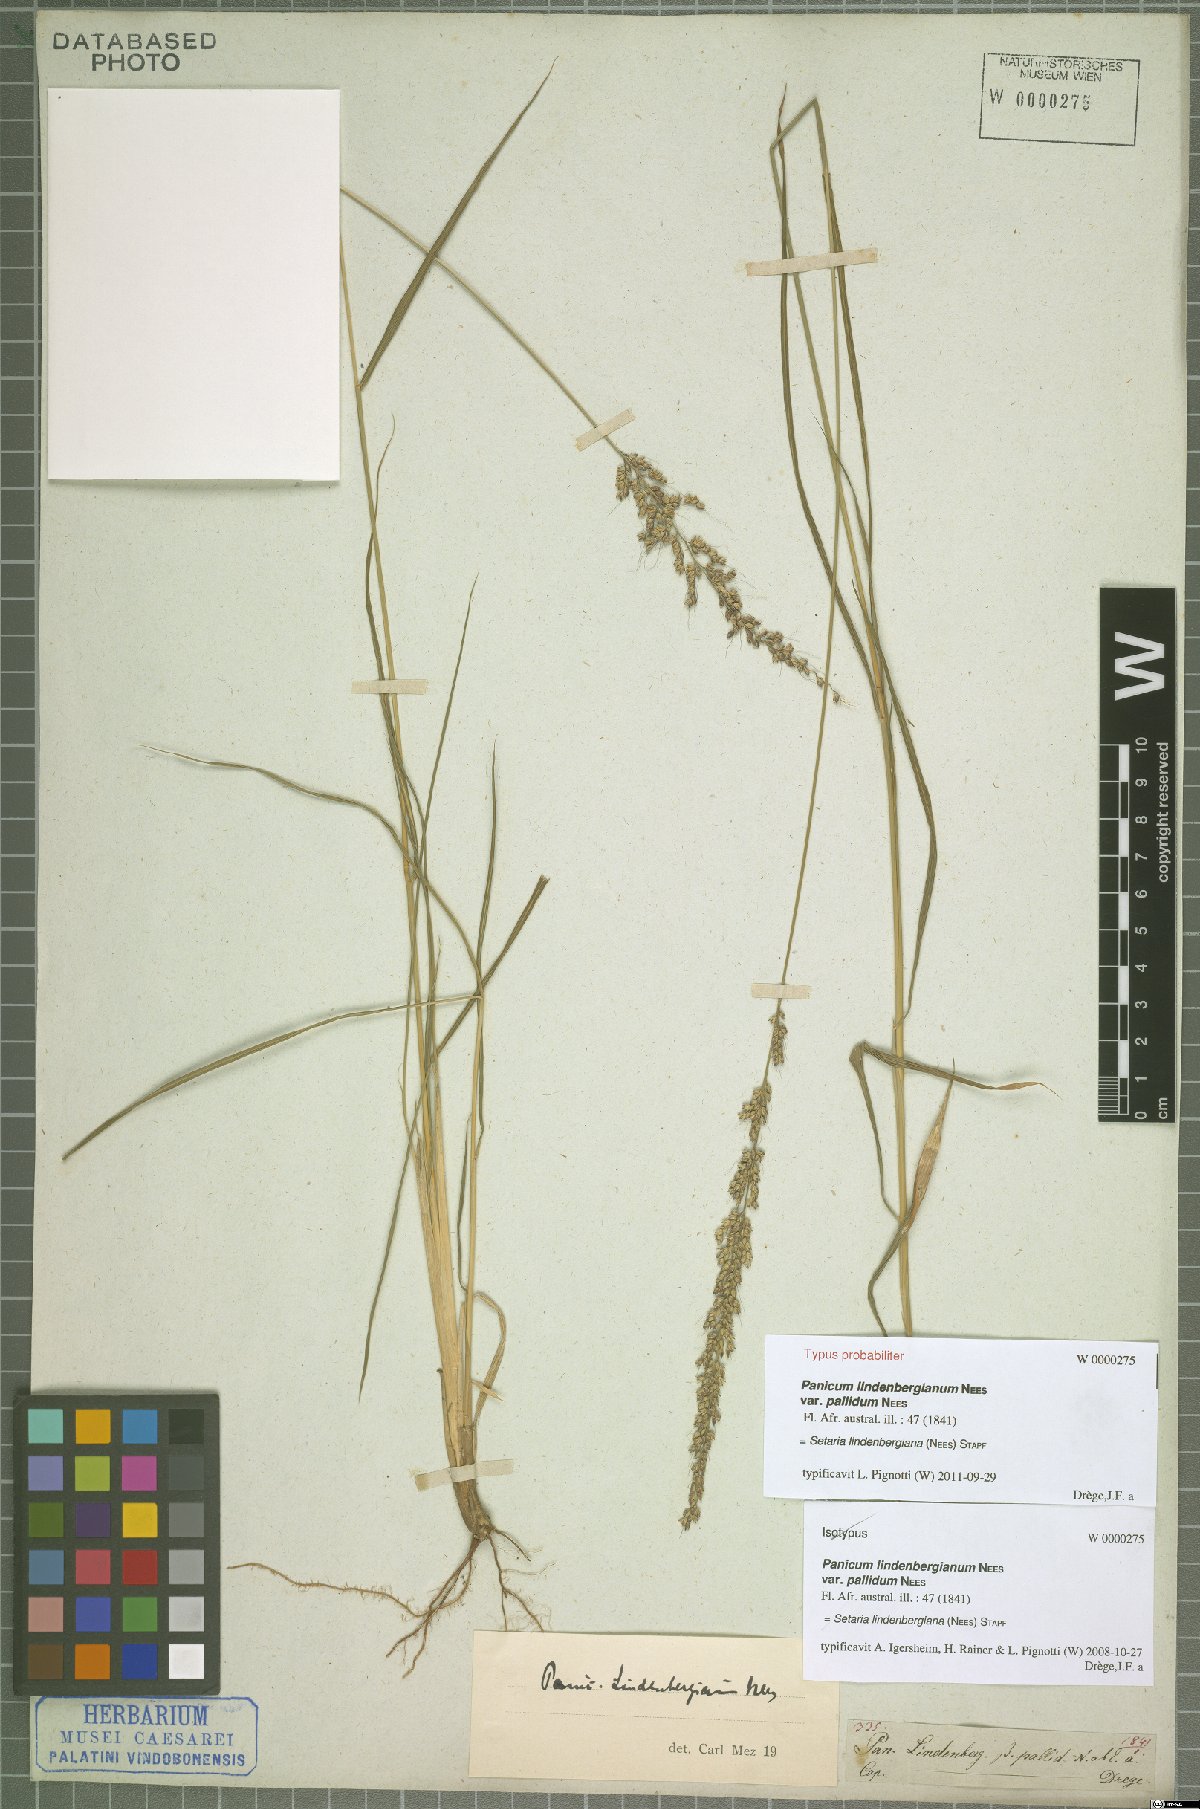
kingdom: Plantae
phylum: Tracheophyta
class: Liliopsida
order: Poales
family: Poaceae
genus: Setaria
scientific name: Setaria lindenbergiana
